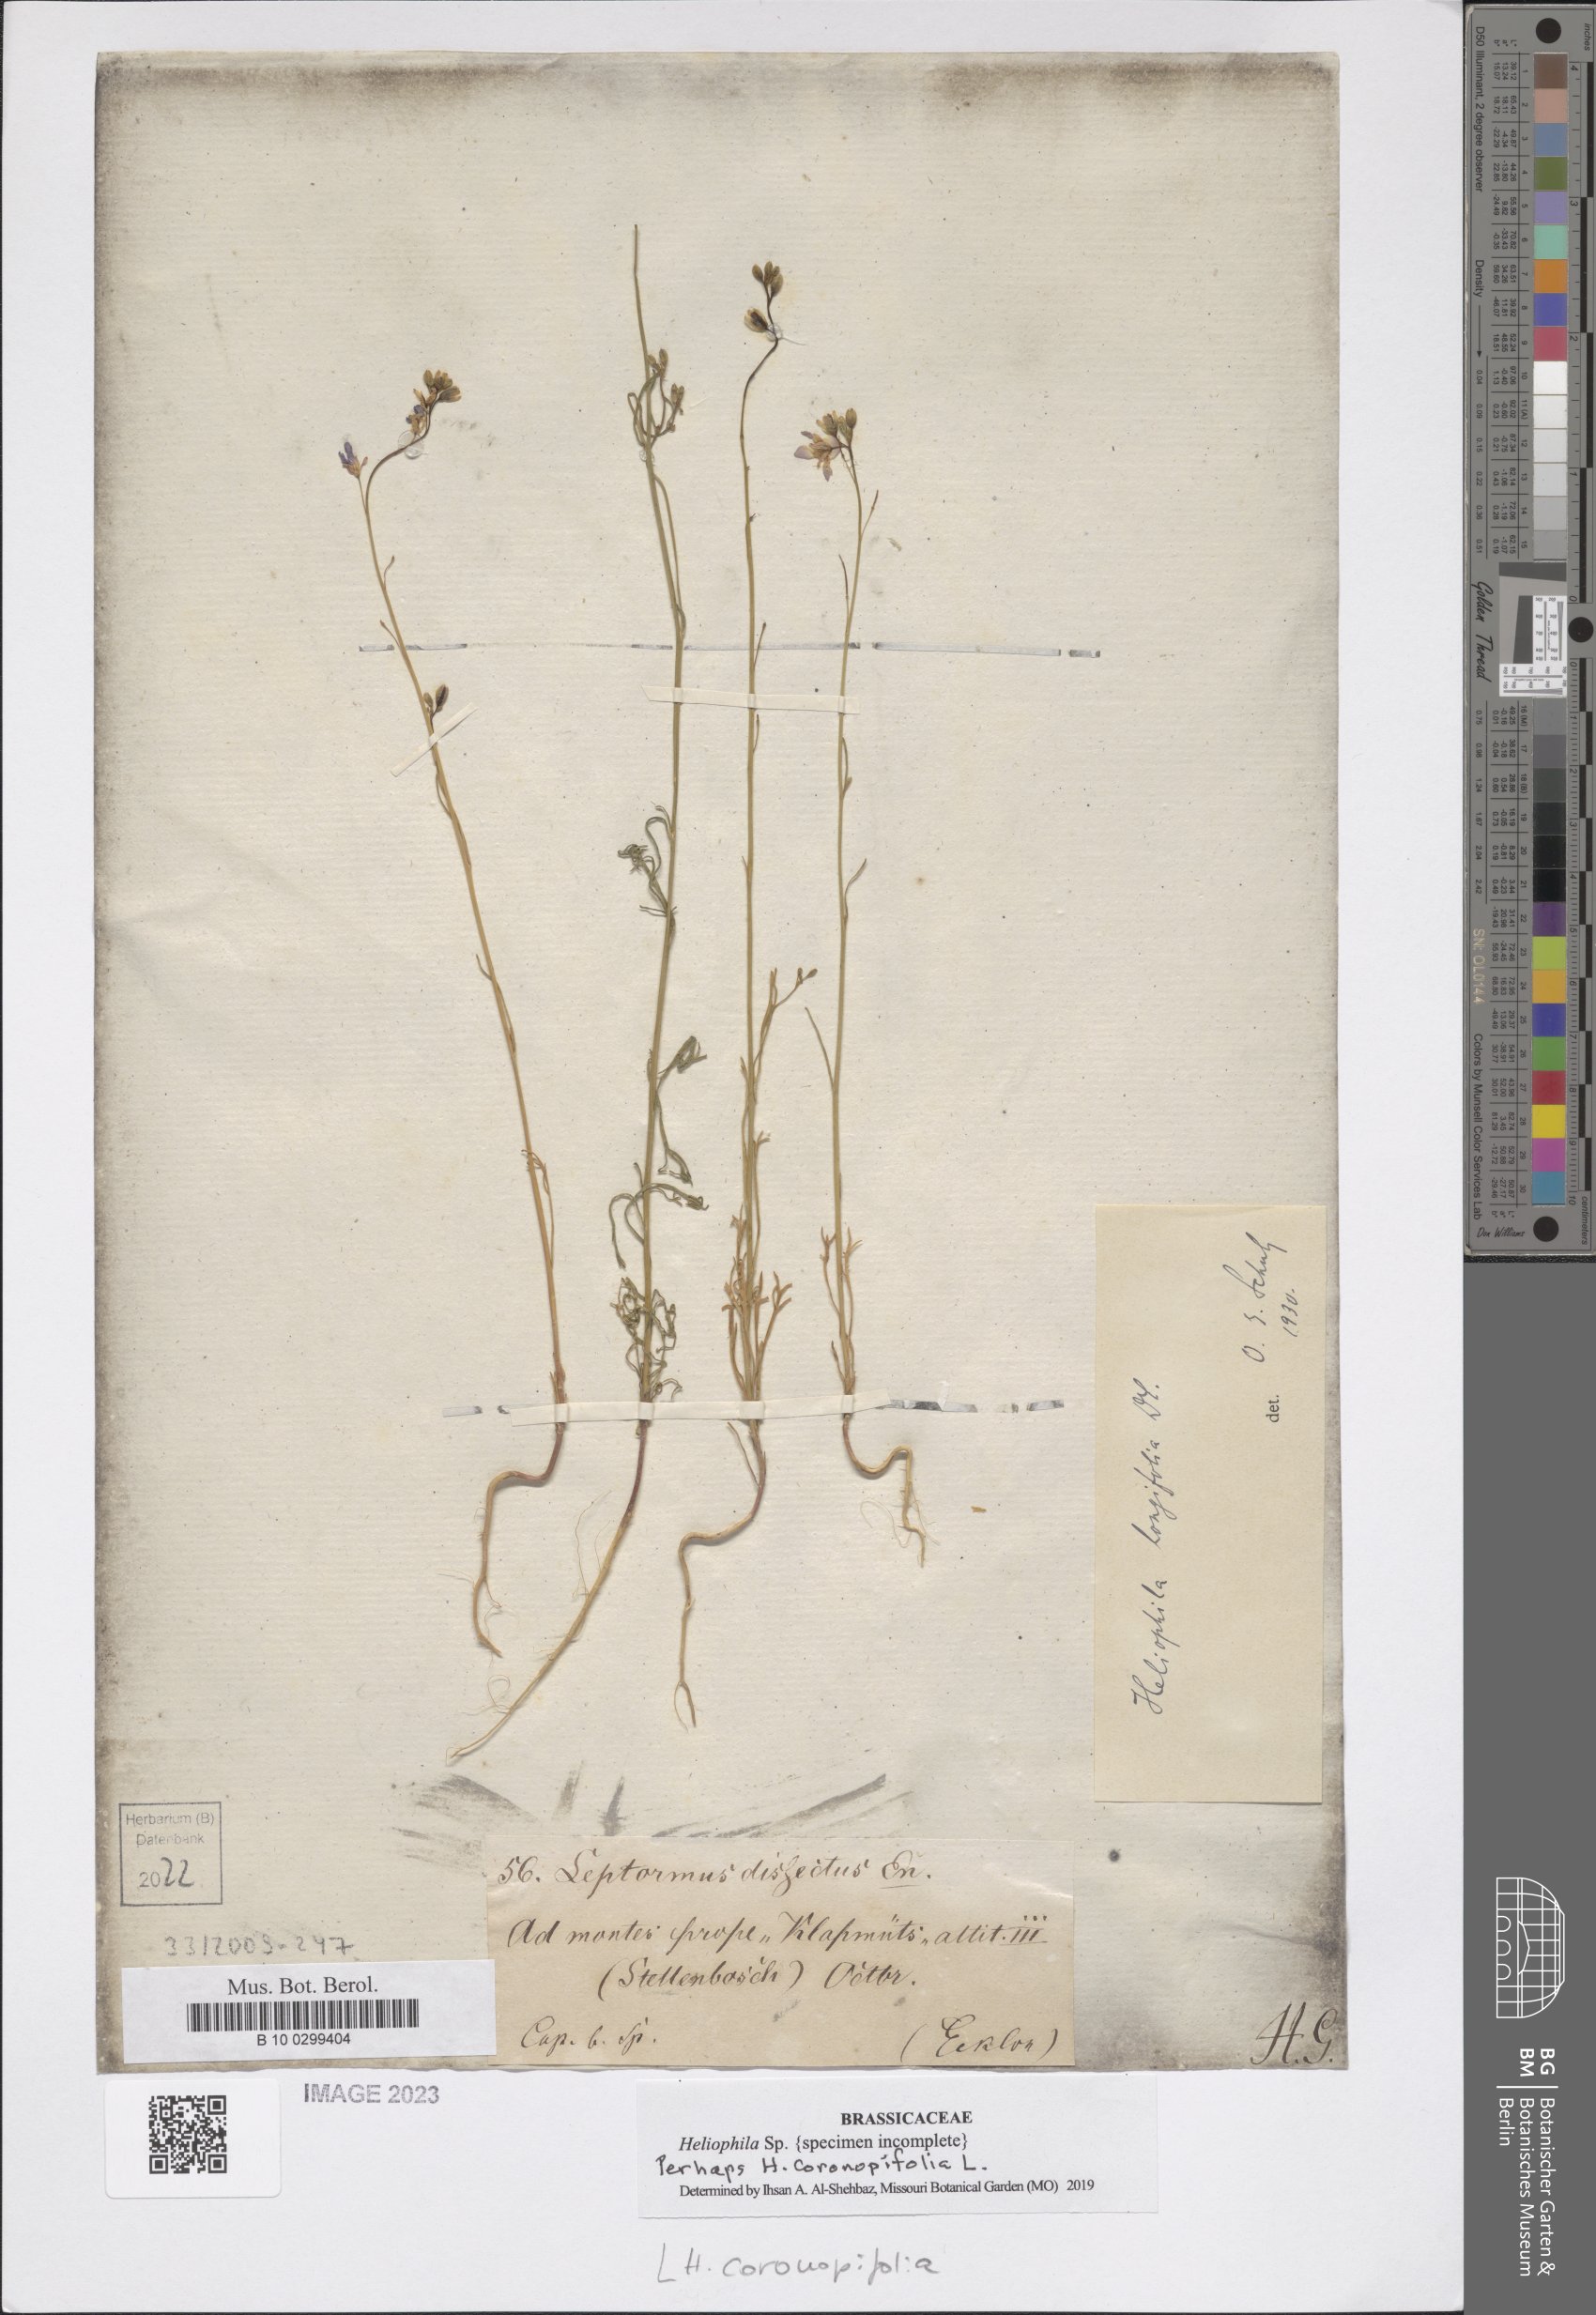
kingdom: Plantae
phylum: Tracheophyta
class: Magnoliopsida
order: Brassicales
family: Brassicaceae
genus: Heliophila
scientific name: Heliophila coronopifolia
